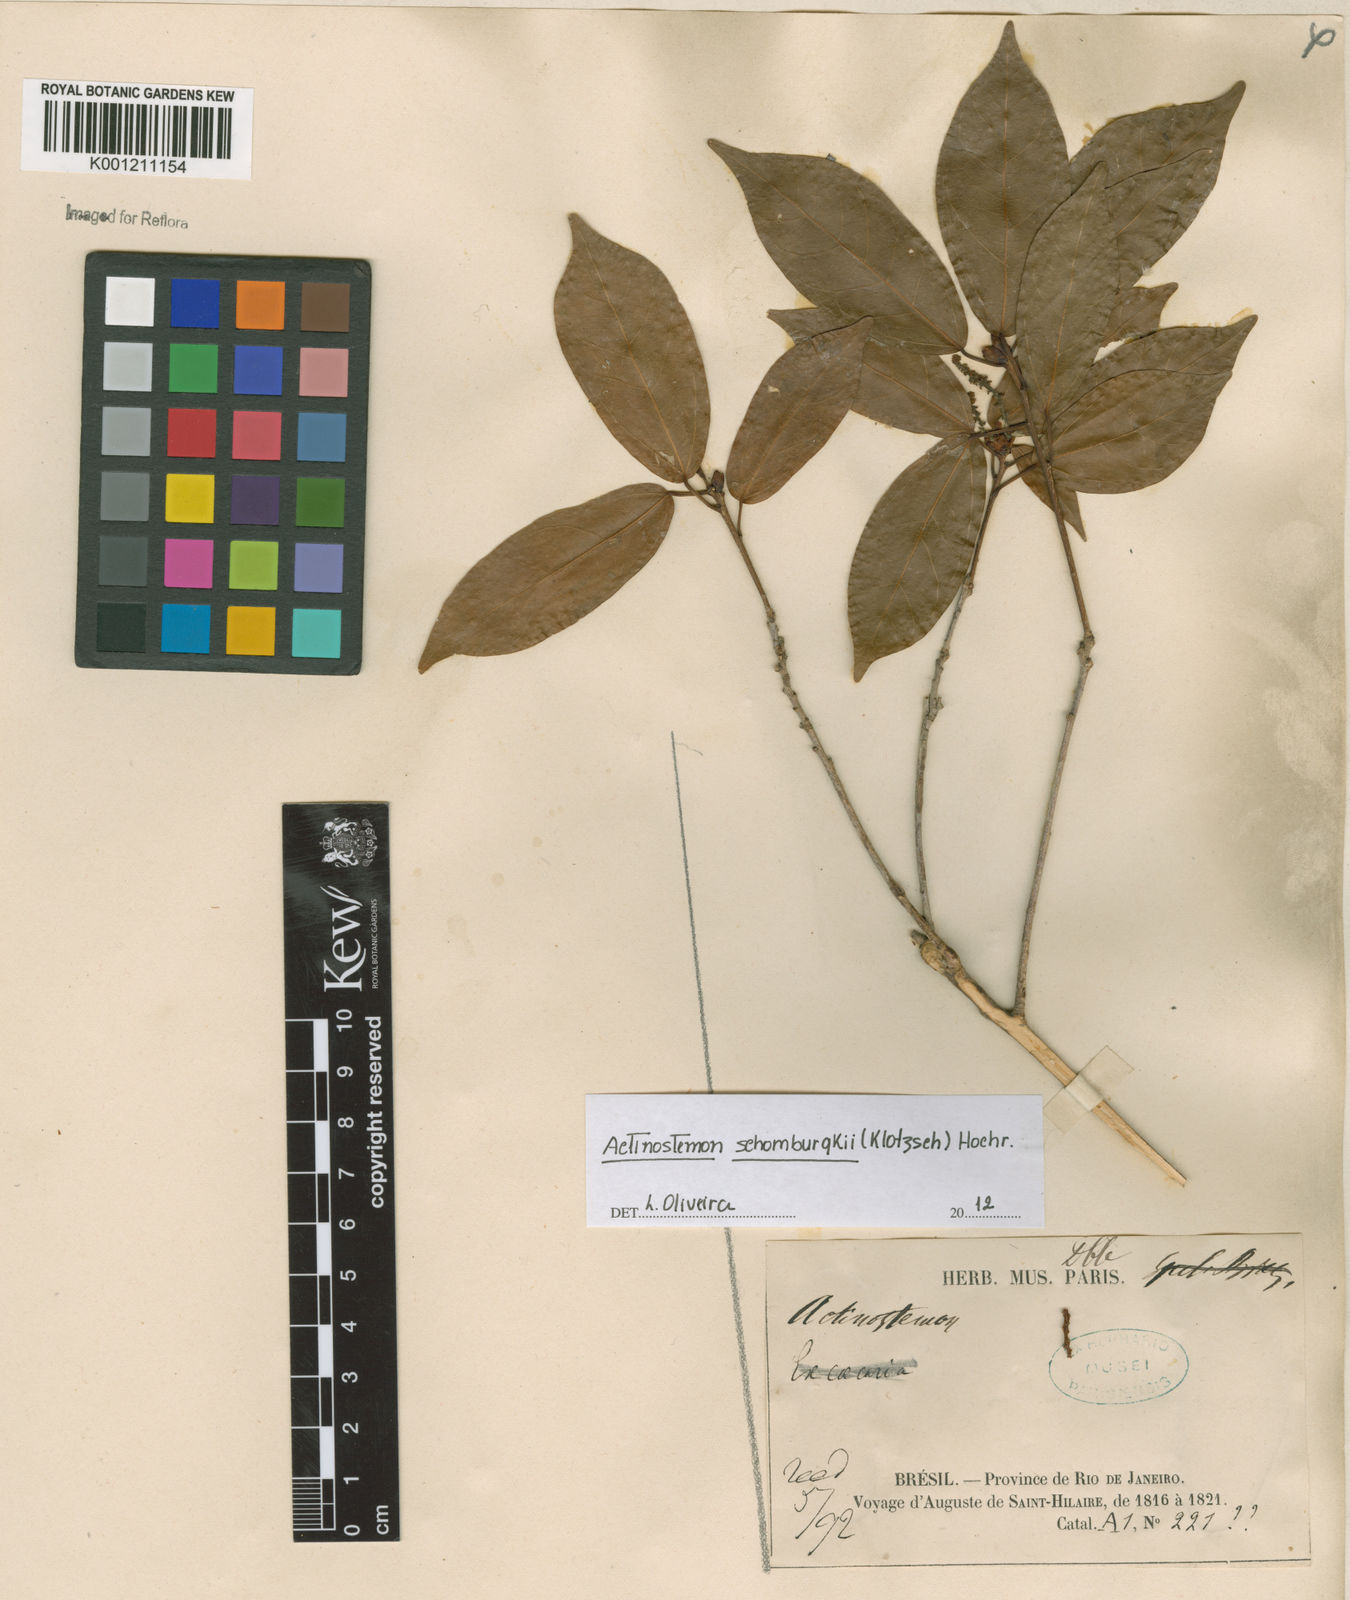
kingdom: Plantae
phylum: Tracheophyta
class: Magnoliopsida
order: Malpighiales
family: Euphorbiaceae
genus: Actinostemon
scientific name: Actinostemon schomburgkii
